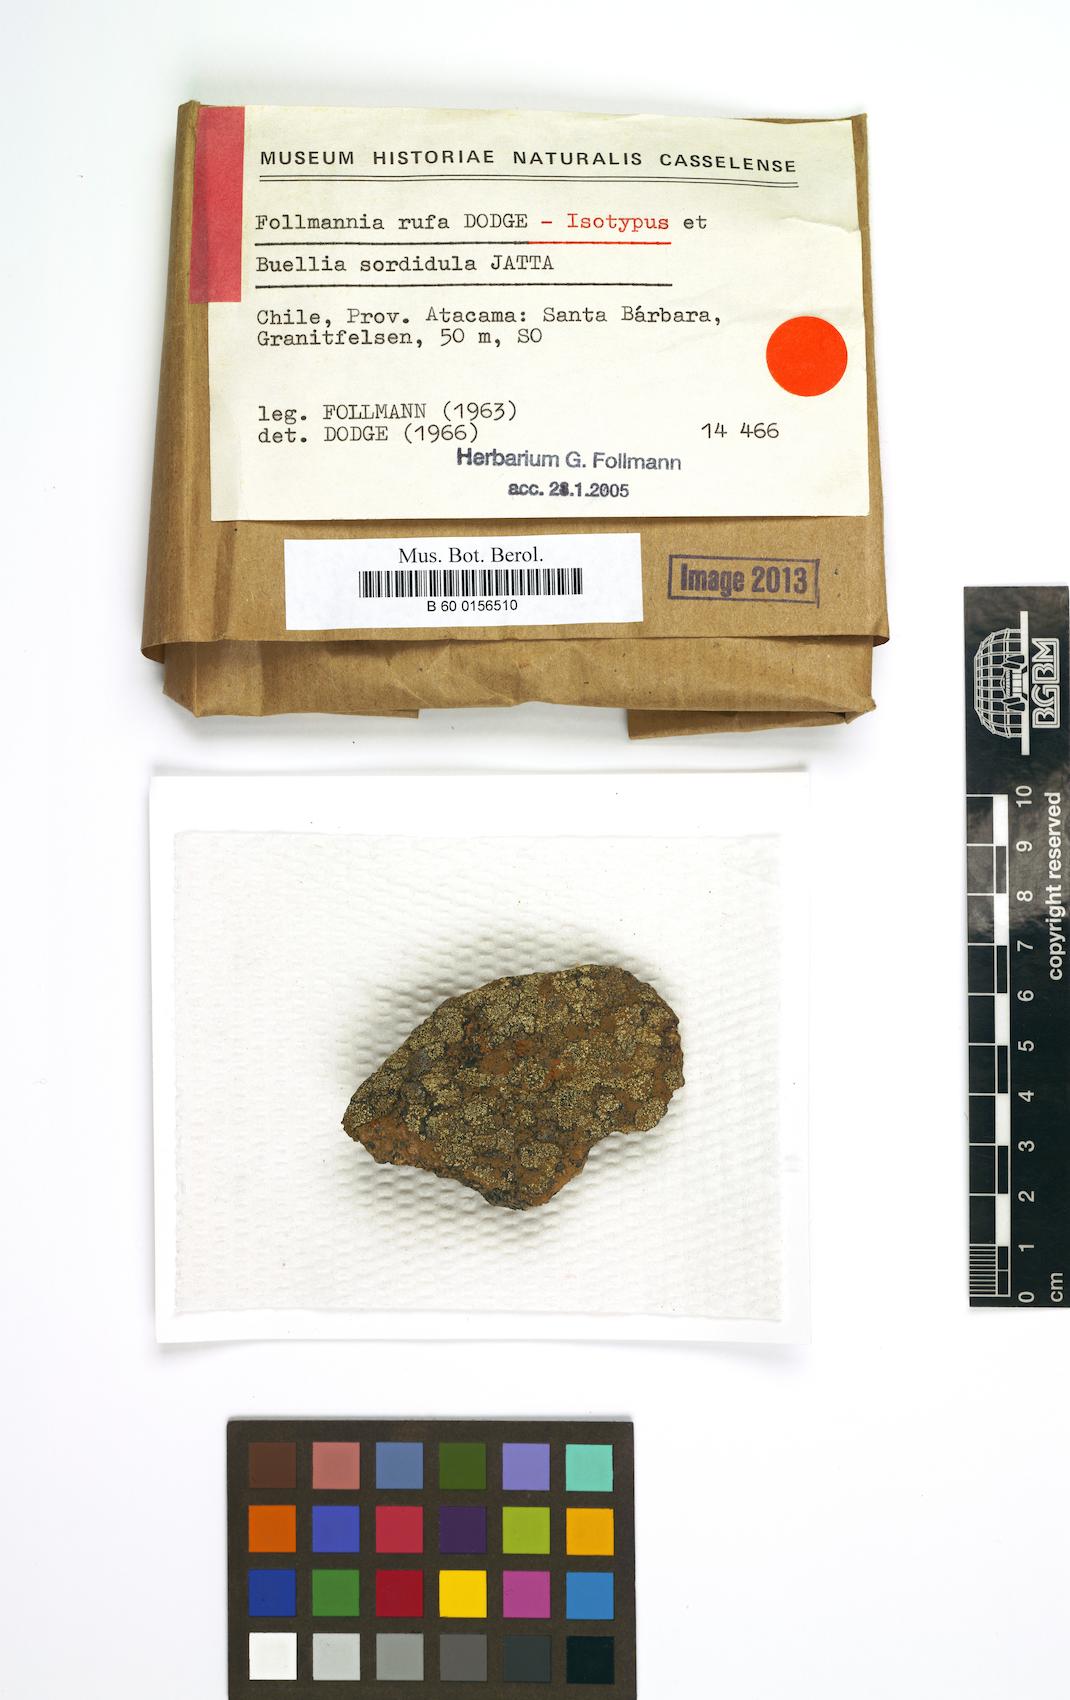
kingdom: Fungi
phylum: Ascomycota
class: Lecanoromycetes
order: Teloschistales
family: Teloschistaceae
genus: Follmannia
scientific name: Follmannia rufa
